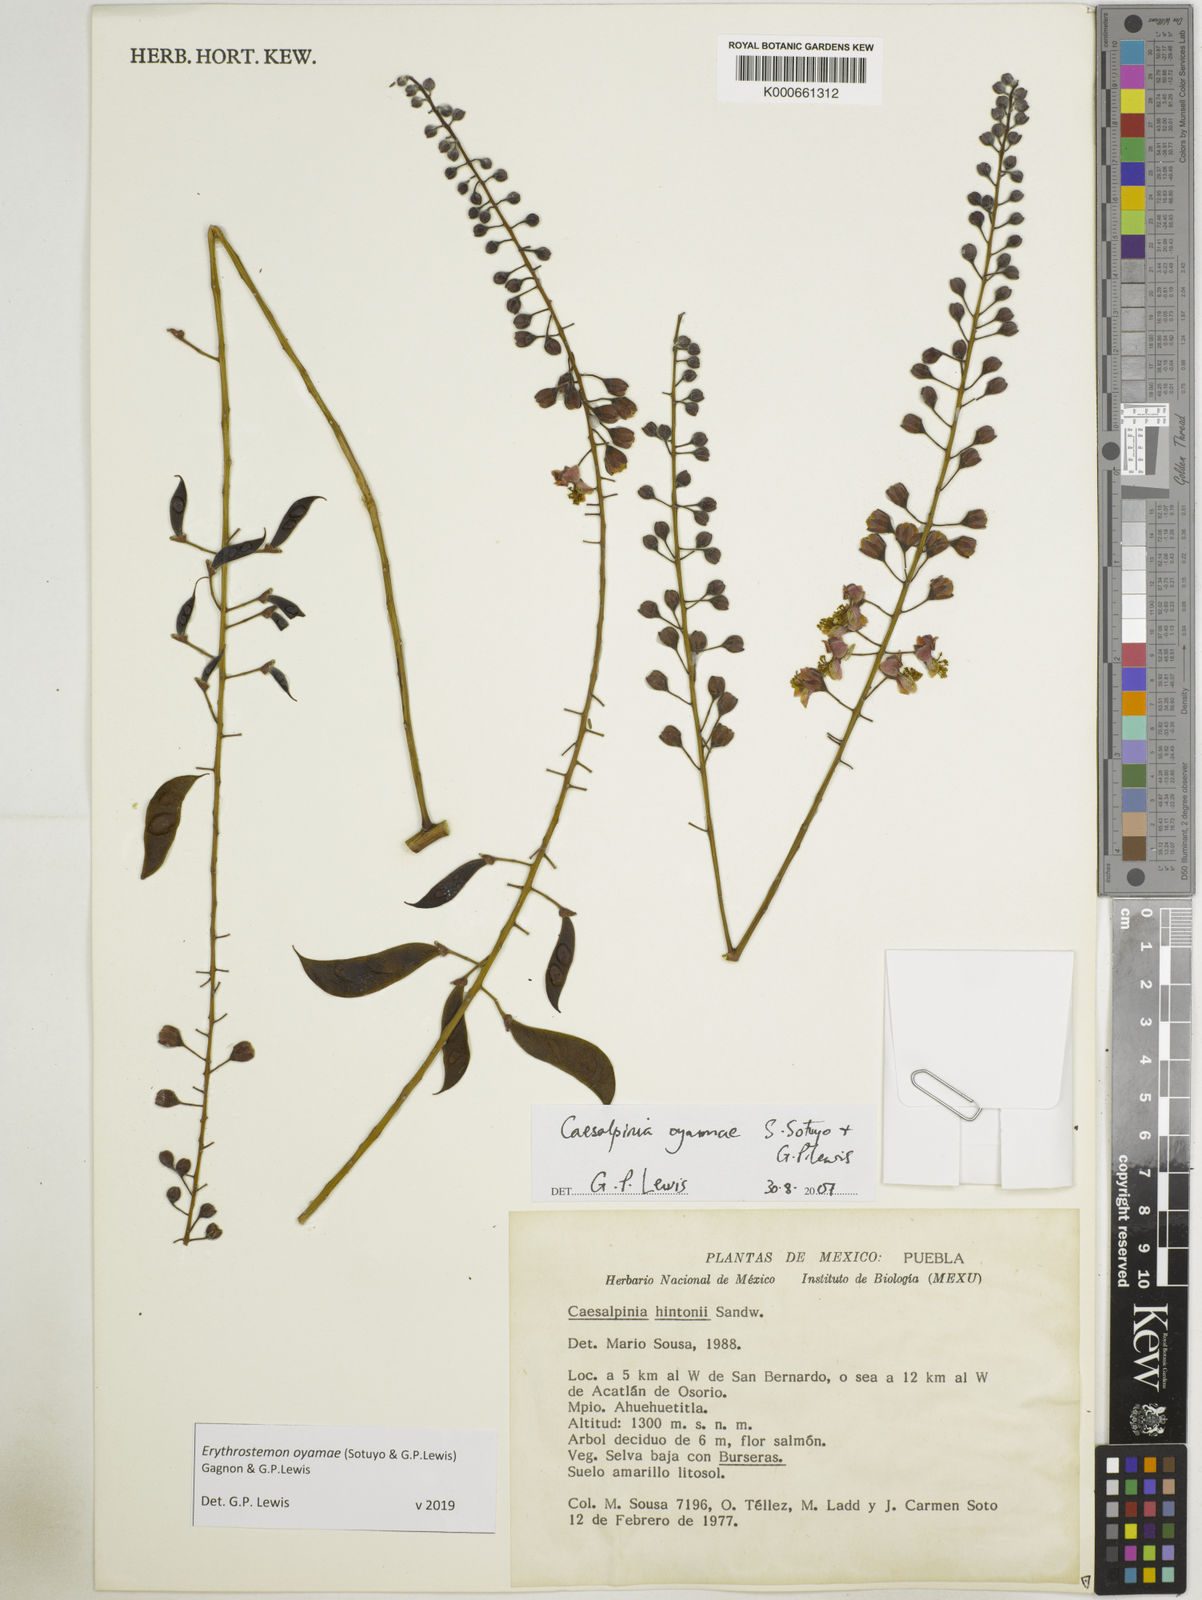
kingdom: Plantae
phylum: Tracheophyta
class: Magnoliopsida
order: Fabales
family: Fabaceae
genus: Erythrostemon
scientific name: Erythrostemon oyamae
